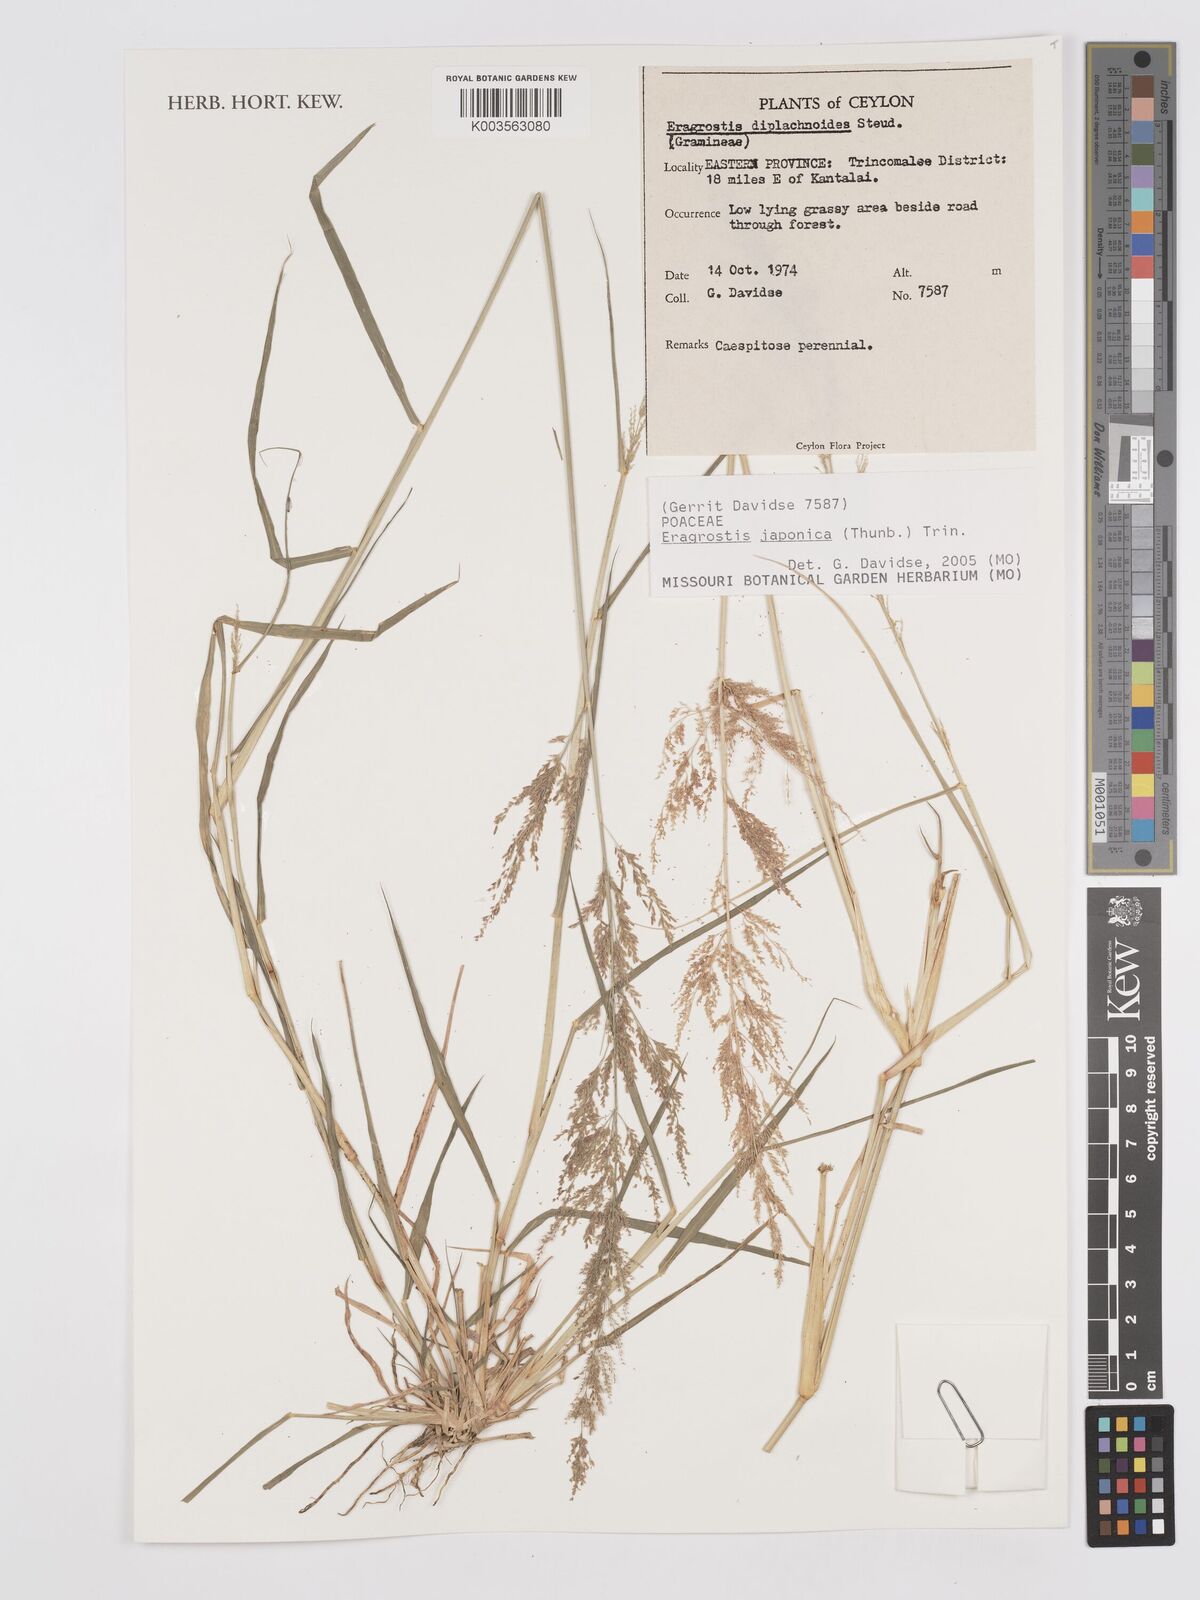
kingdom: Plantae
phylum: Tracheophyta
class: Liliopsida
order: Poales
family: Poaceae
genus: Eragrostis
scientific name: Eragrostis japonica
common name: Pond lovegrass
